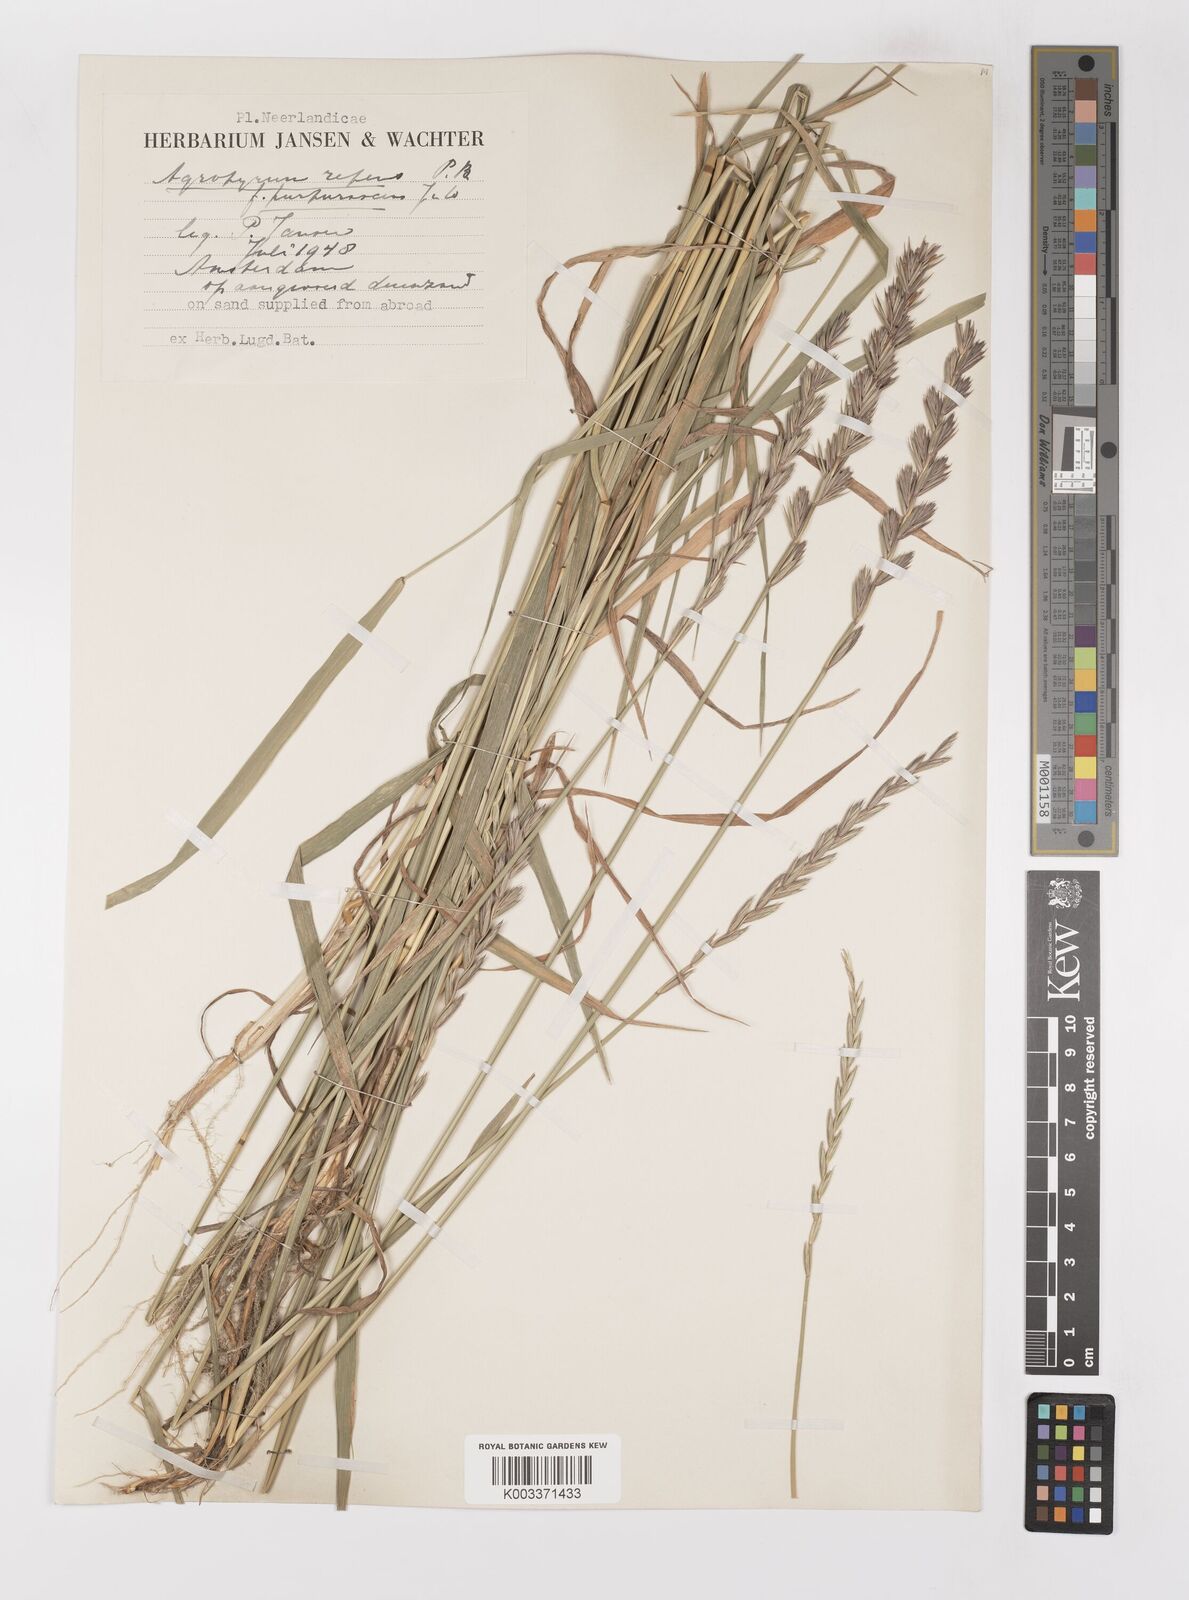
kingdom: Plantae
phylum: Tracheophyta
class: Liliopsida
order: Poales
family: Poaceae
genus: Elymus
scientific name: Elymus repens
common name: Quackgrass
